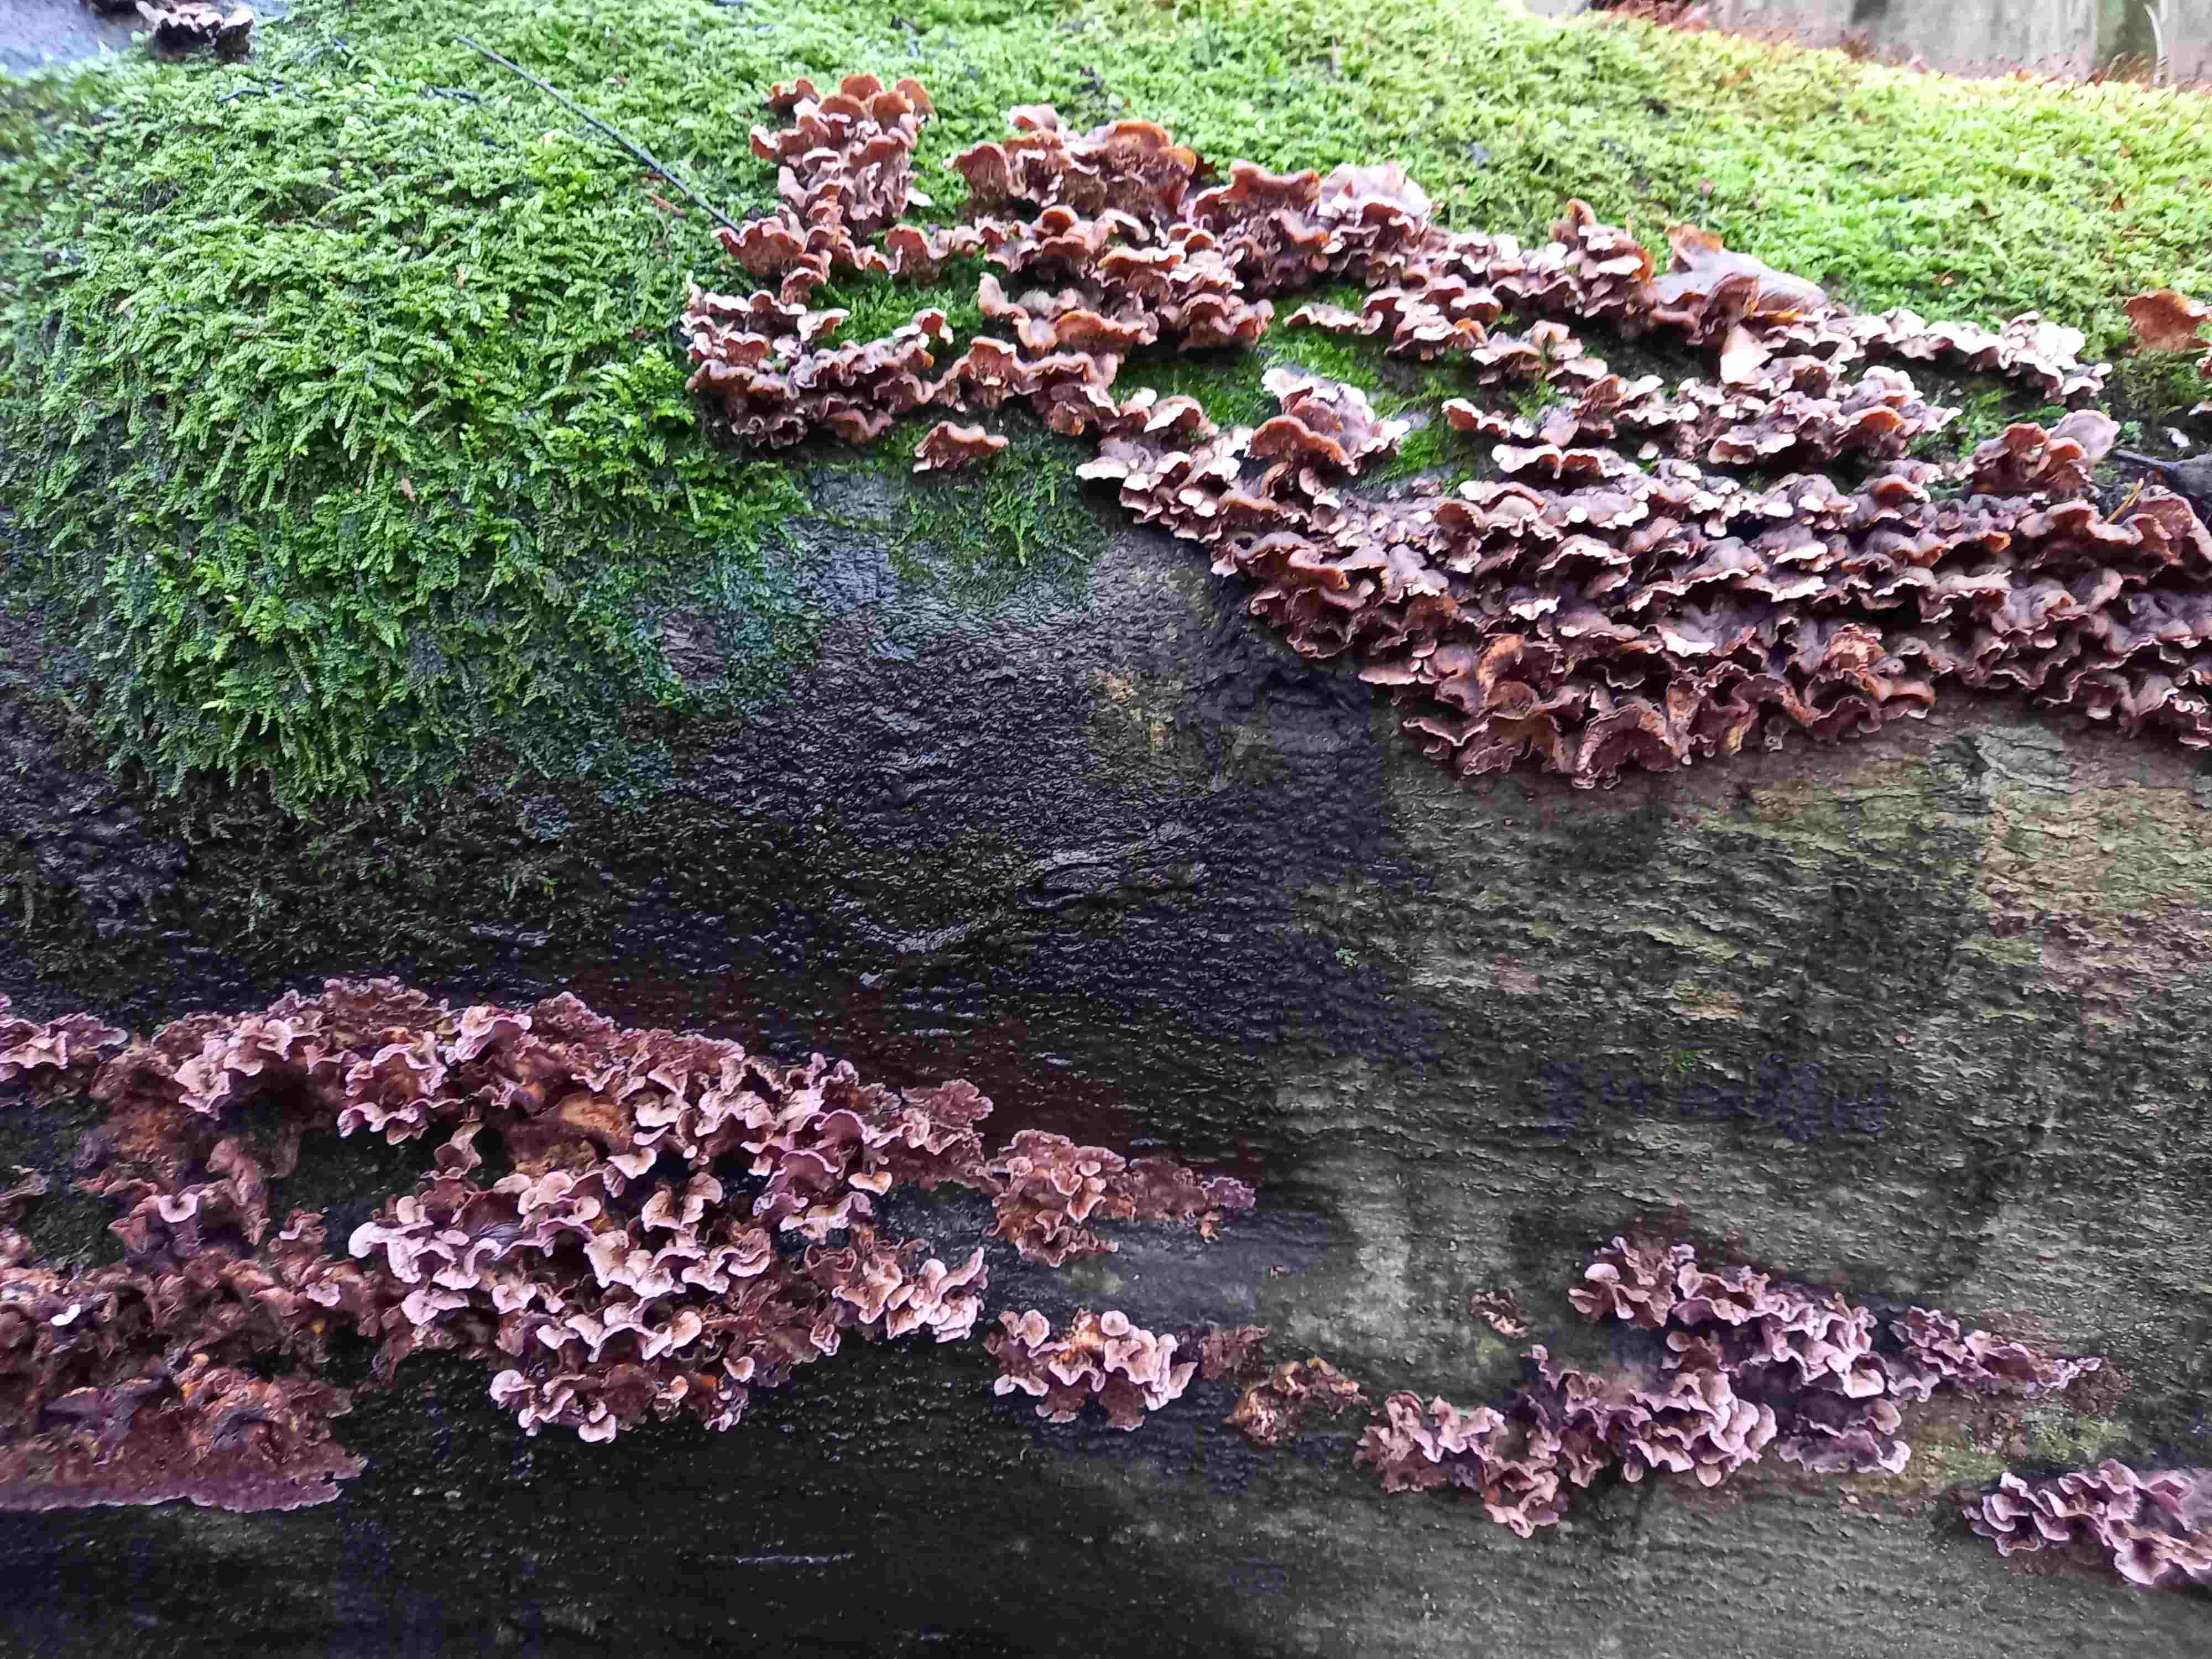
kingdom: Fungi
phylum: Basidiomycota
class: Agaricomycetes
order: Agaricales
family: Cyphellaceae
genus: Chondrostereum
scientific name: Chondrostereum purpureum
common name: purpurlædersvamp
